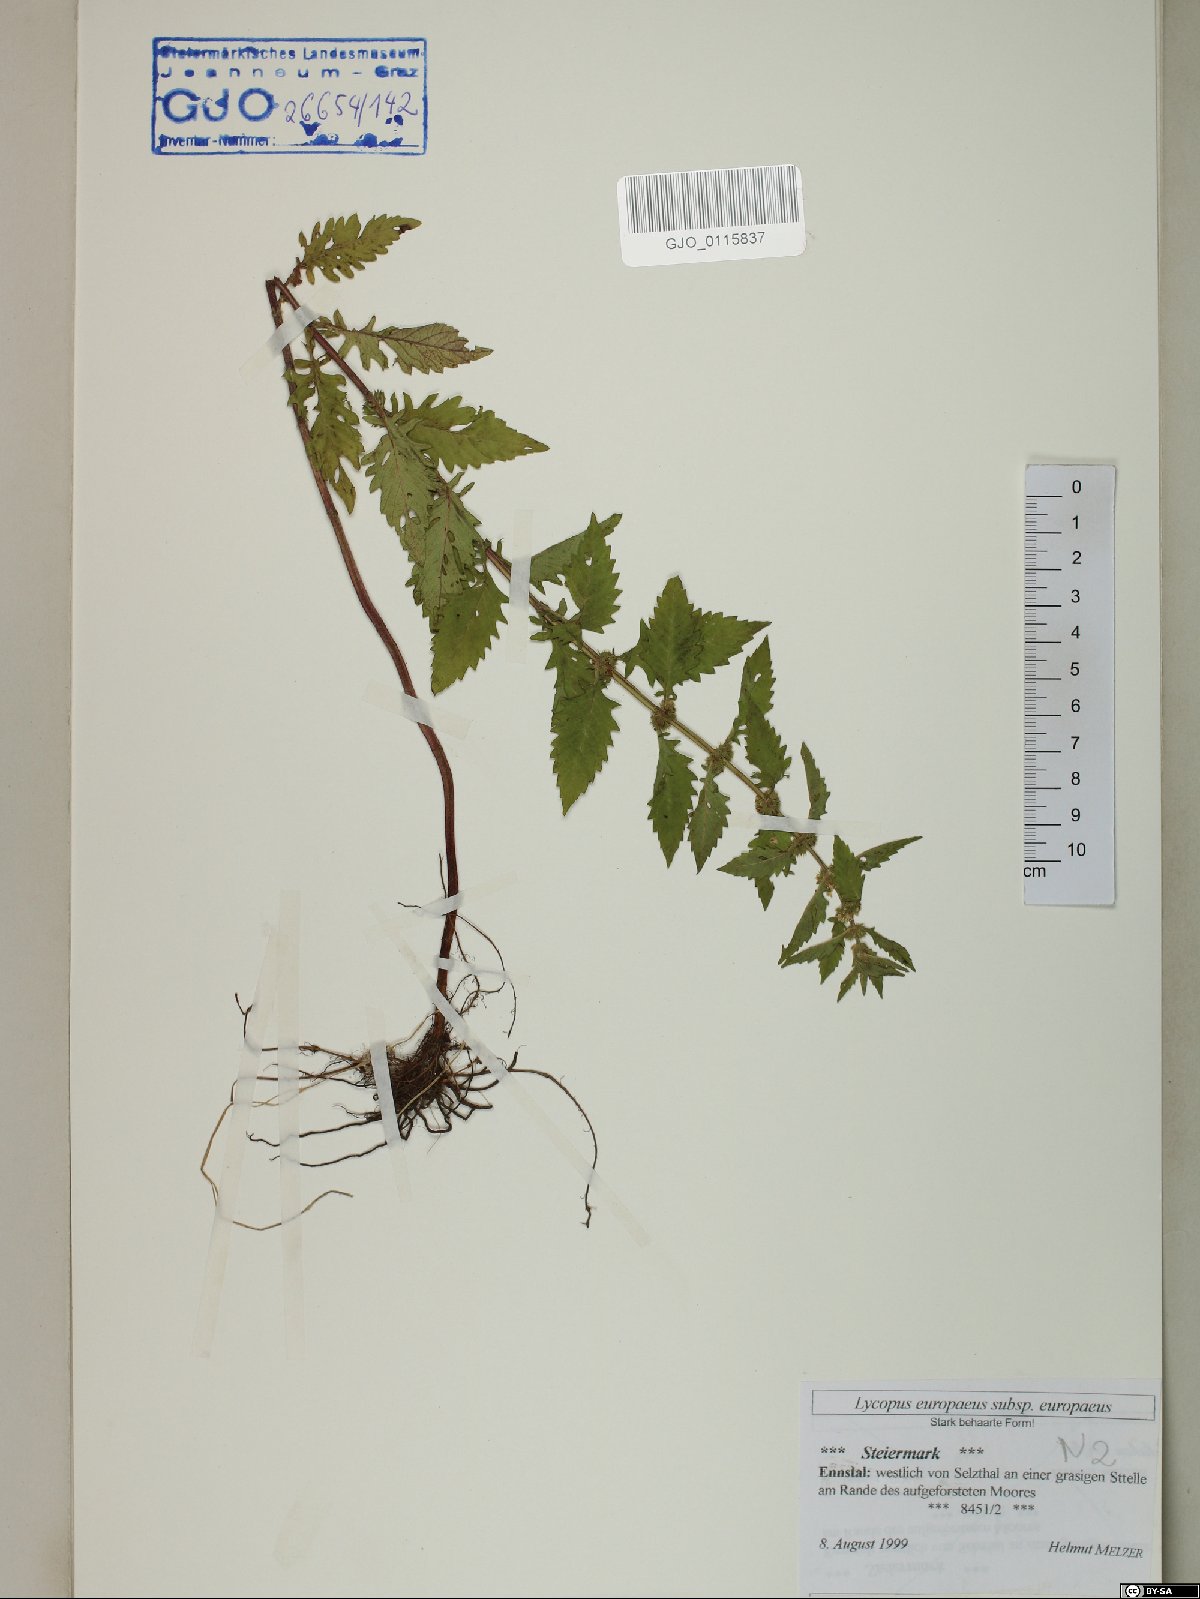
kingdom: Plantae
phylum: Tracheophyta
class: Magnoliopsida
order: Lamiales
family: Lamiaceae
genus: Lycopus
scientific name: Lycopus europaeus
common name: European bugleweed
